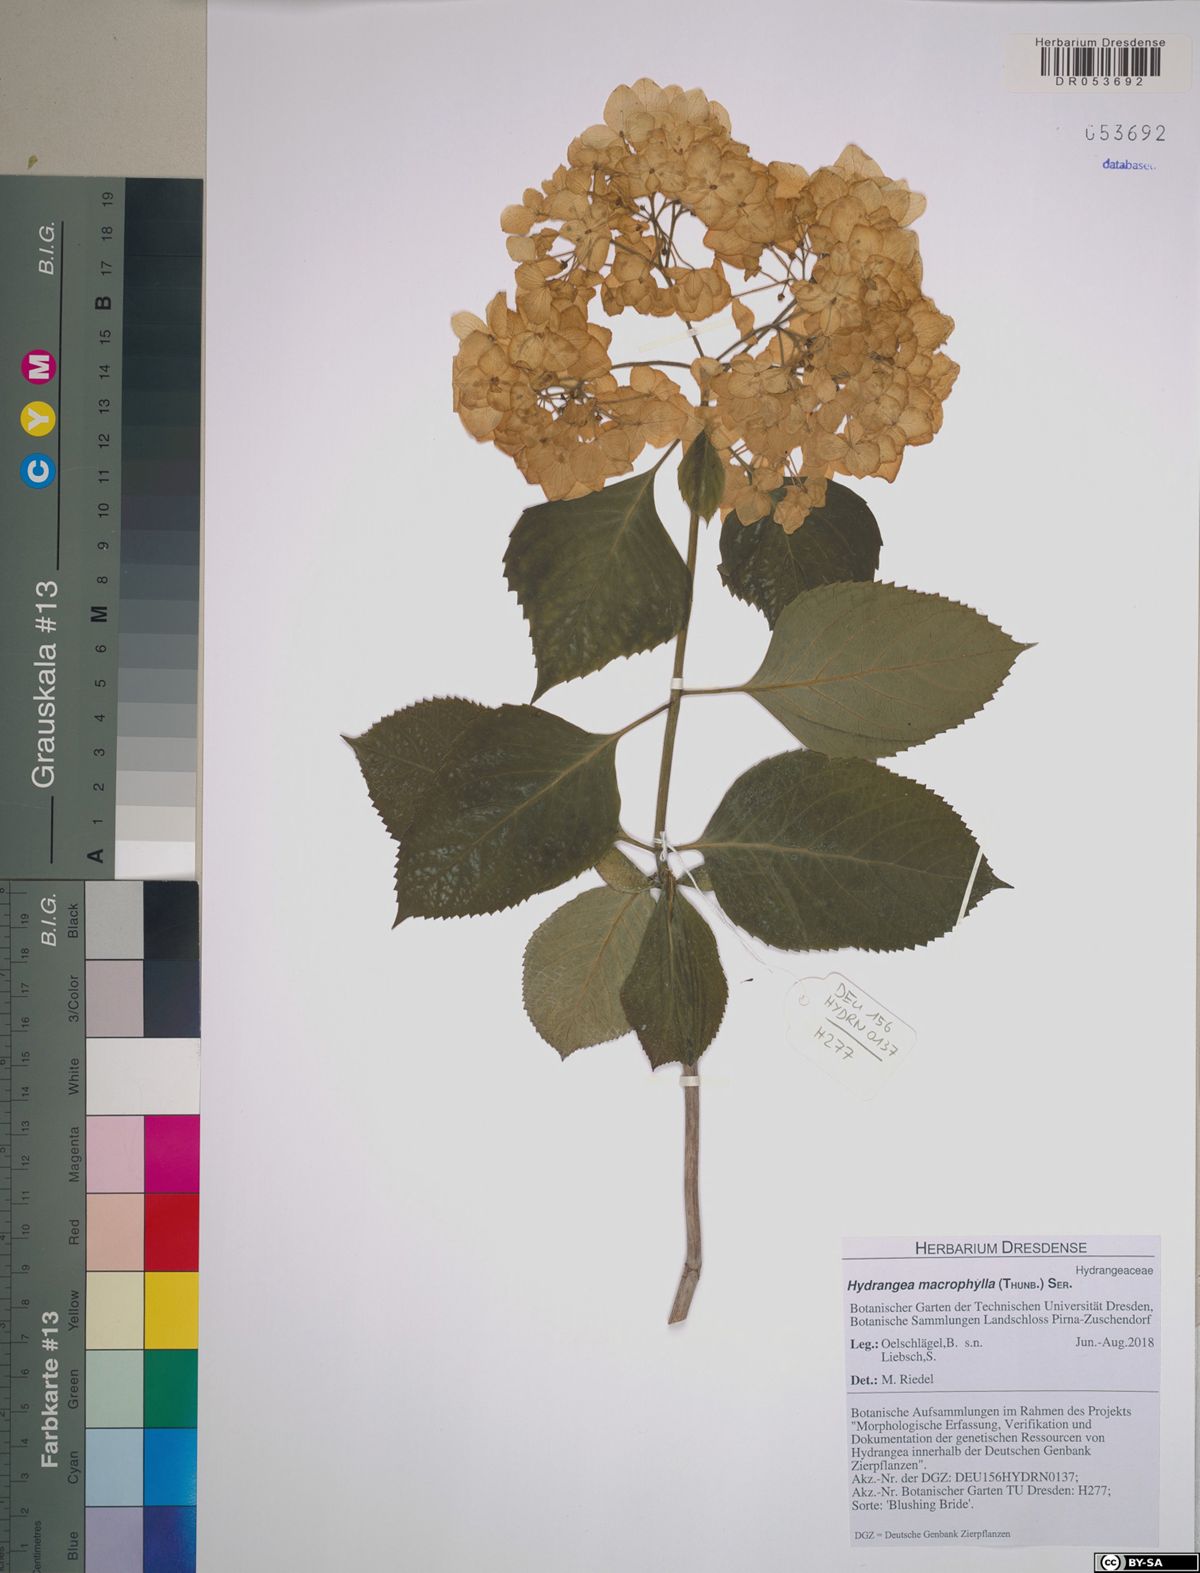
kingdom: Plantae
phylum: Tracheophyta
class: Magnoliopsida
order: Cornales
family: Hydrangeaceae
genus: Hydrangea
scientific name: Hydrangea macrophylla
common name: Hydrangea
